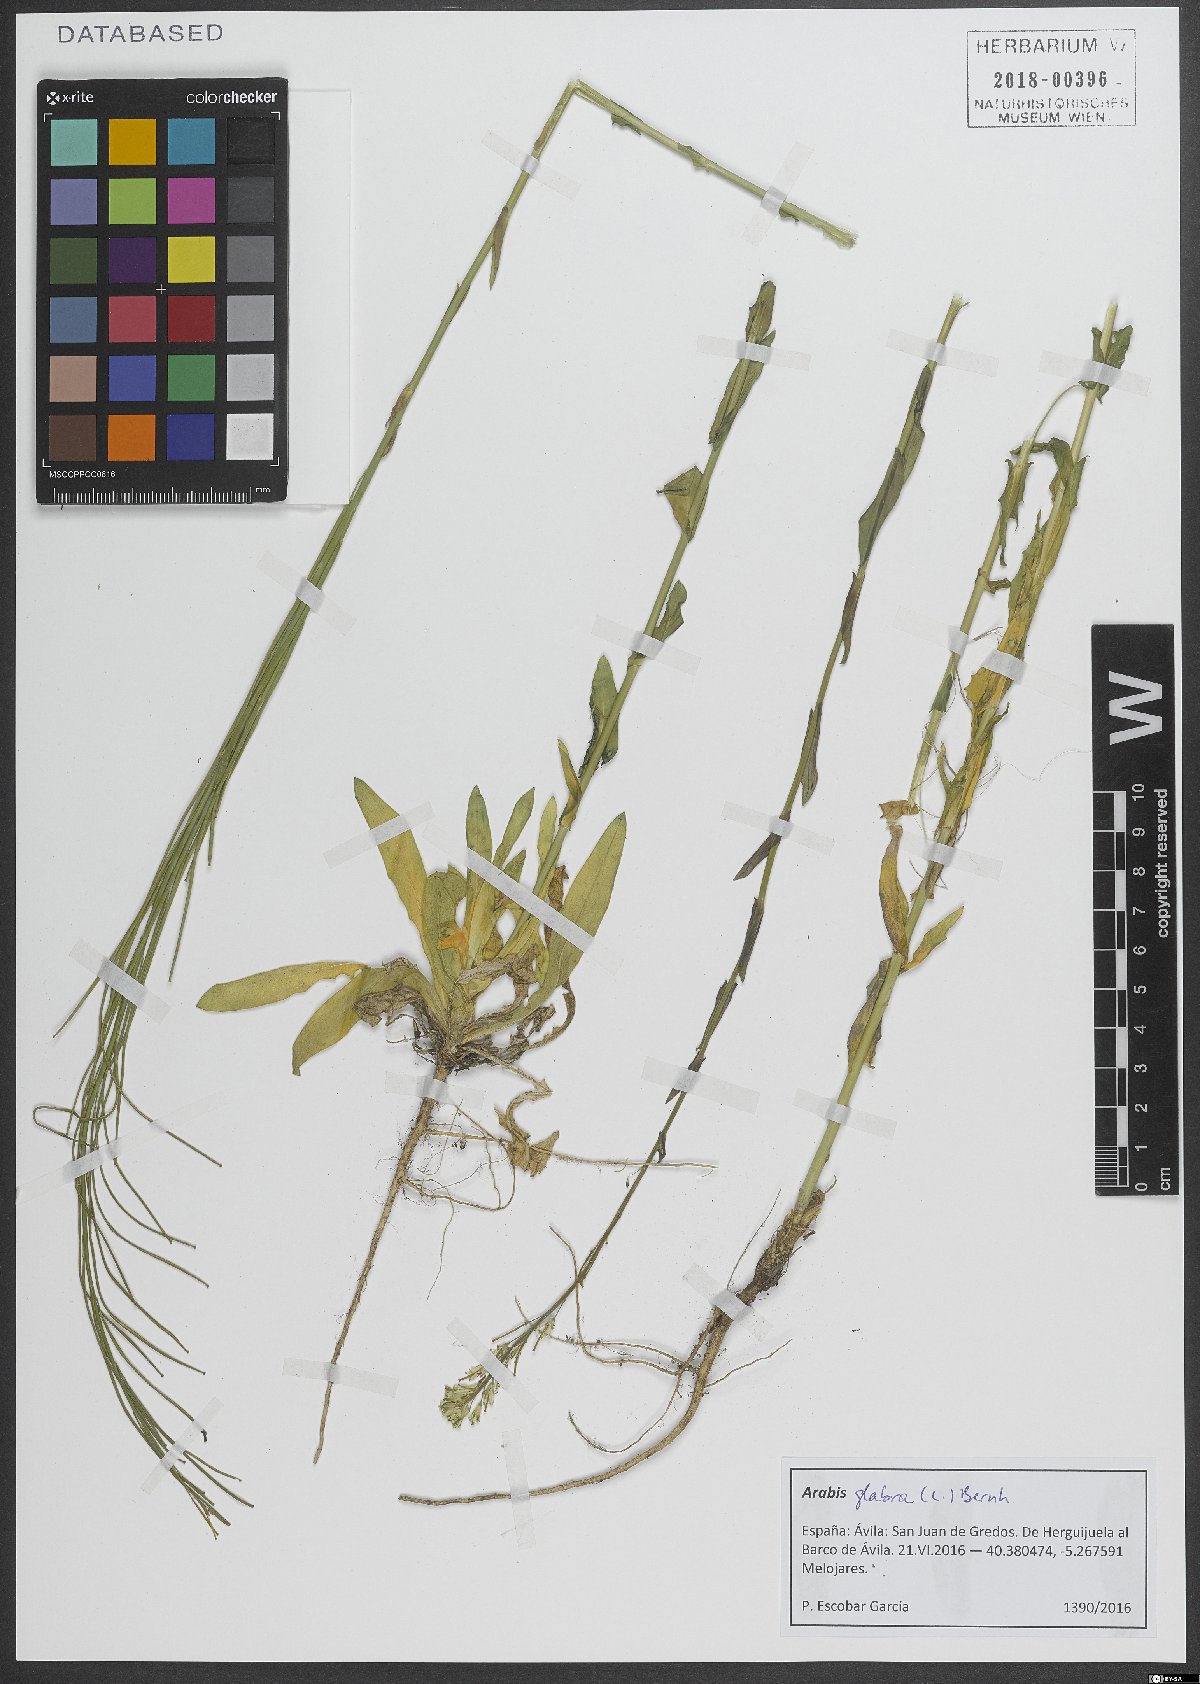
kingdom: Plantae
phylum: Tracheophyta
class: Magnoliopsida
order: Brassicales
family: Brassicaceae
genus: Turritis
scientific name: Turritis glabra
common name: Tower rockcress
